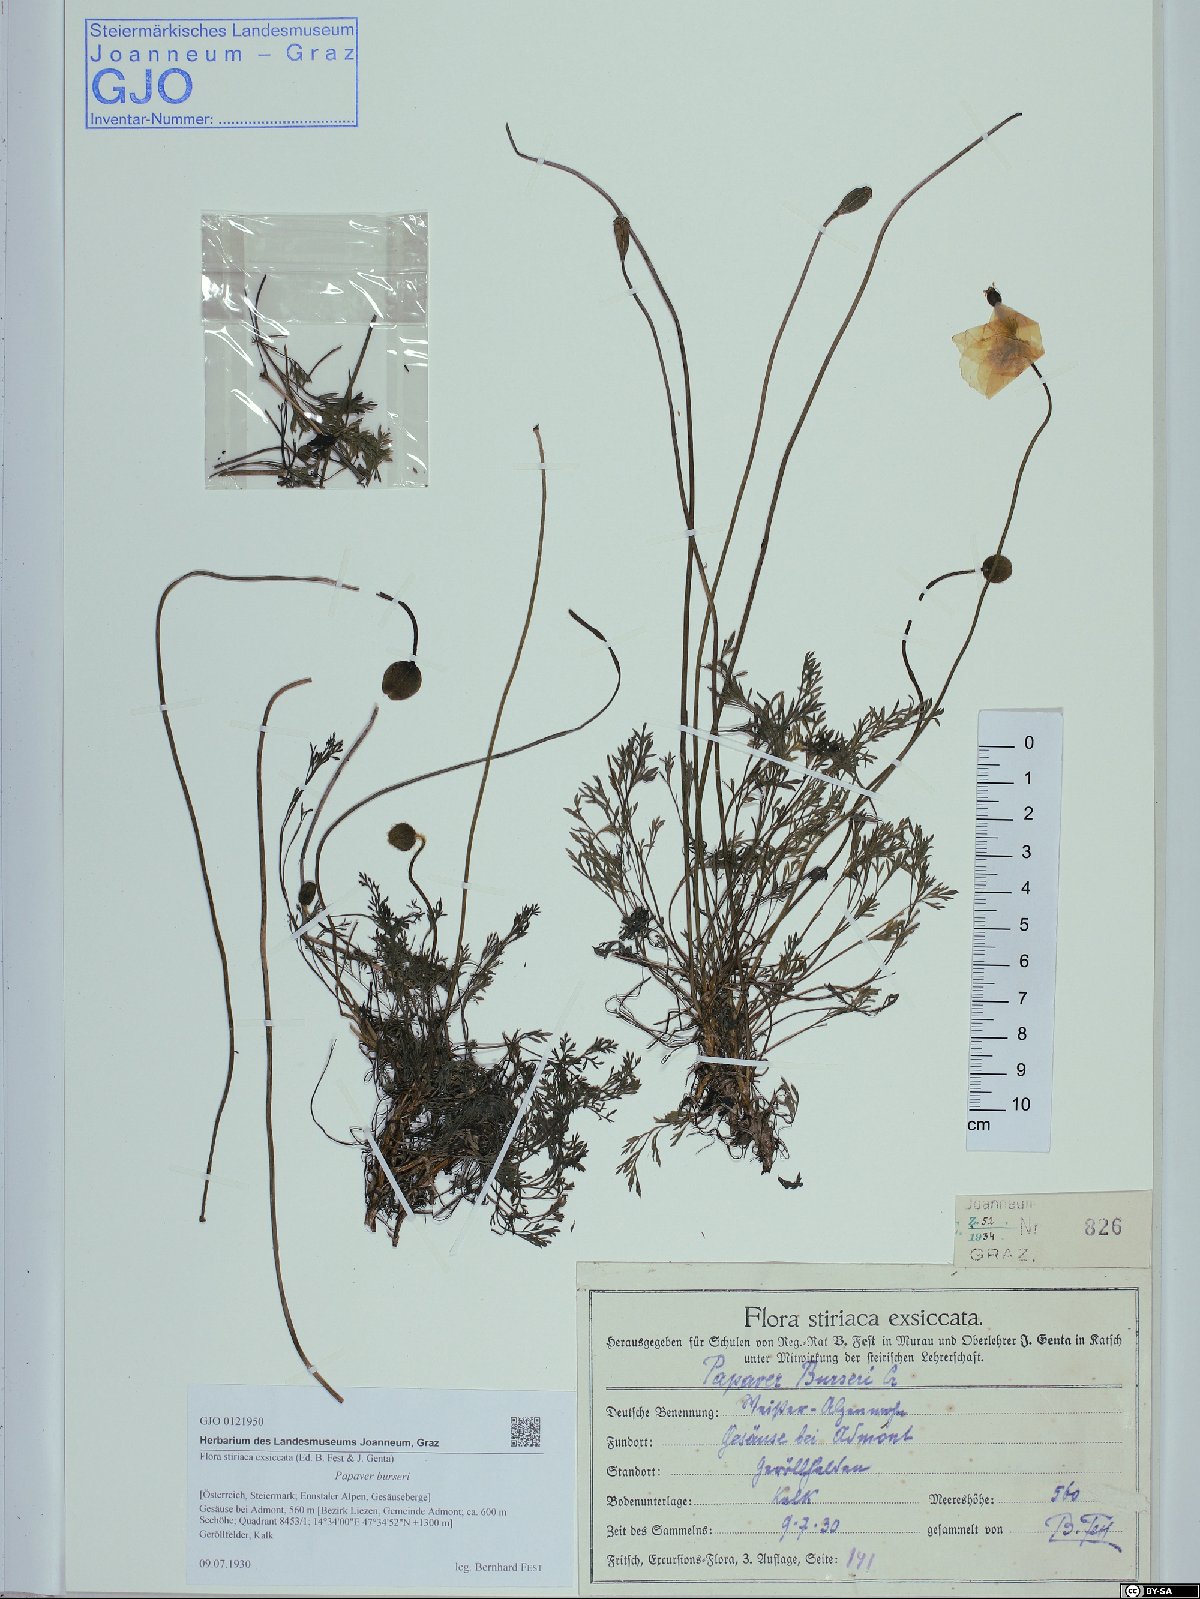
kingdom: Plantae
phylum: Tracheophyta
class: Magnoliopsida
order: Ranunculales
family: Papaveraceae
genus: Papaver
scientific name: Papaver alpinum
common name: Austrian poppy
